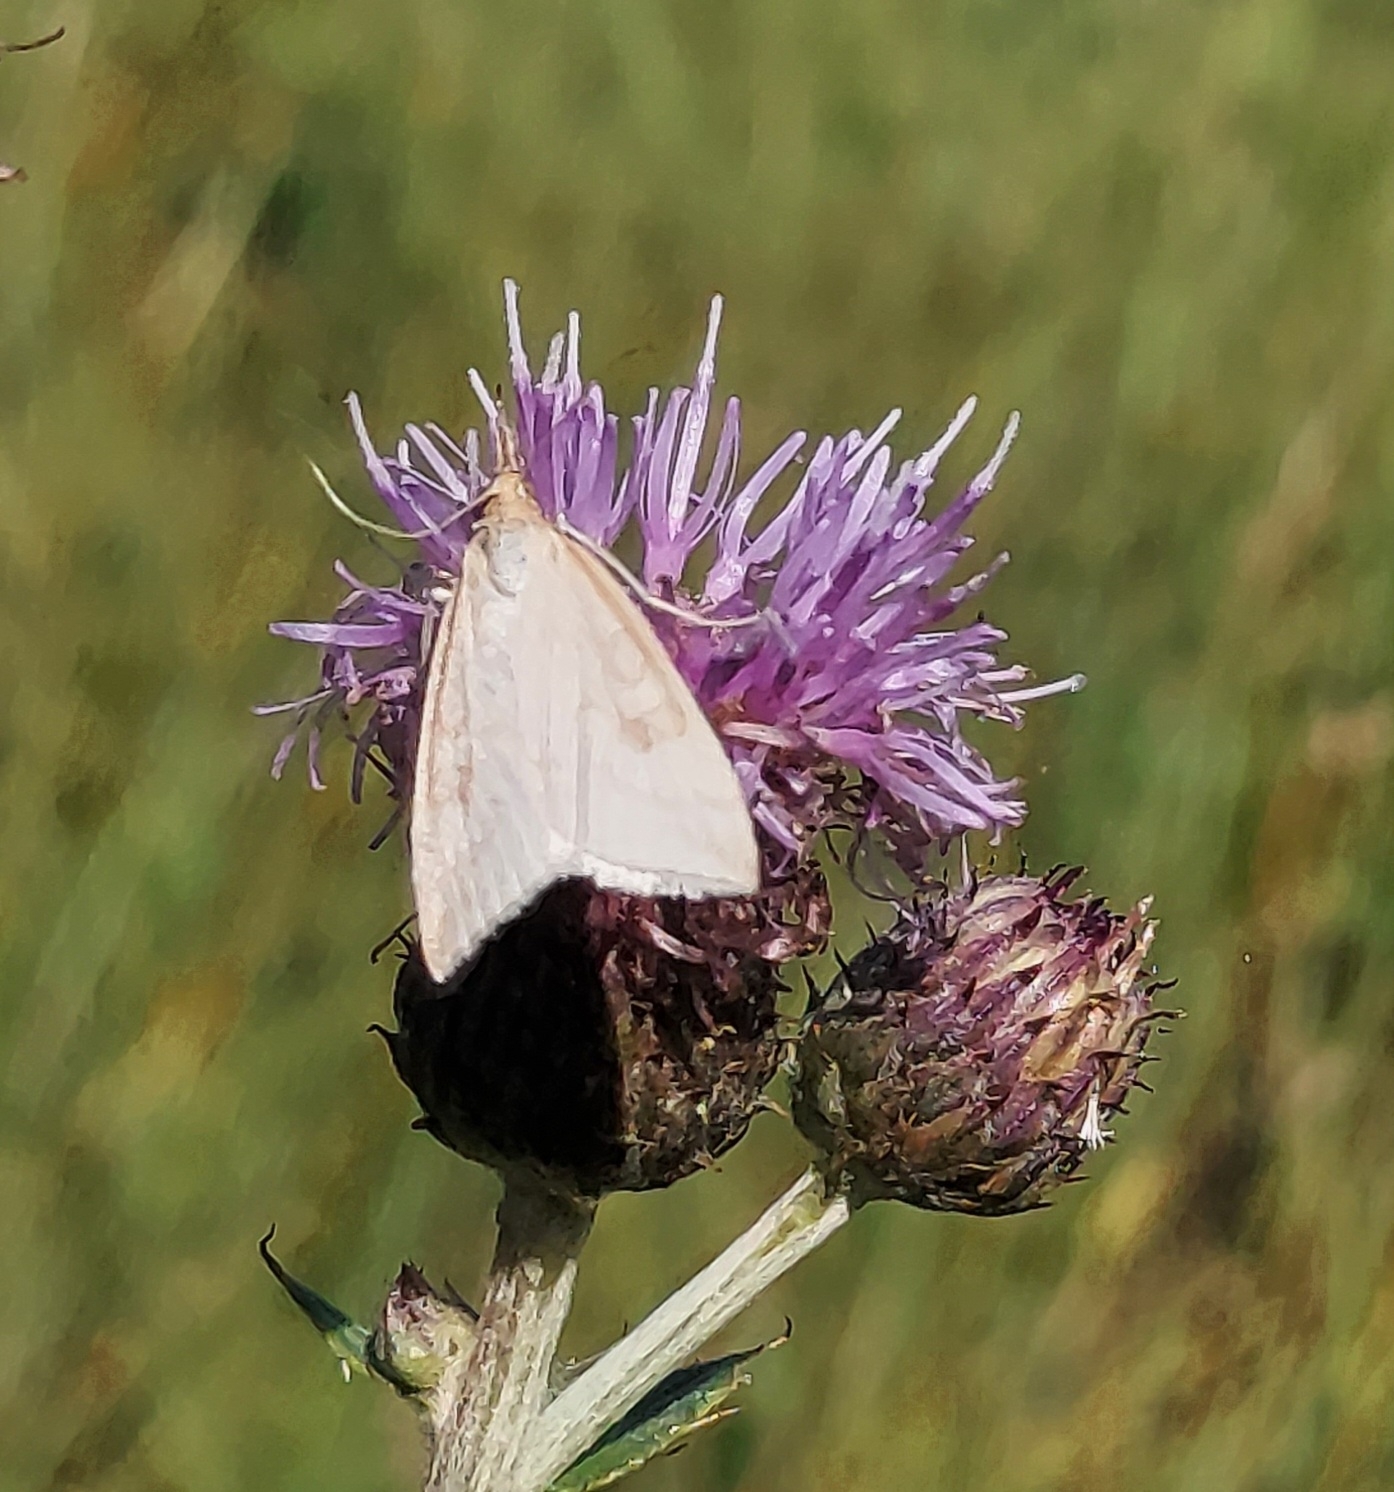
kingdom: Animalia
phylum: Arthropoda
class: Insecta
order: Lepidoptera
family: Crambidae
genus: Udea
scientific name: Udea lutealis
